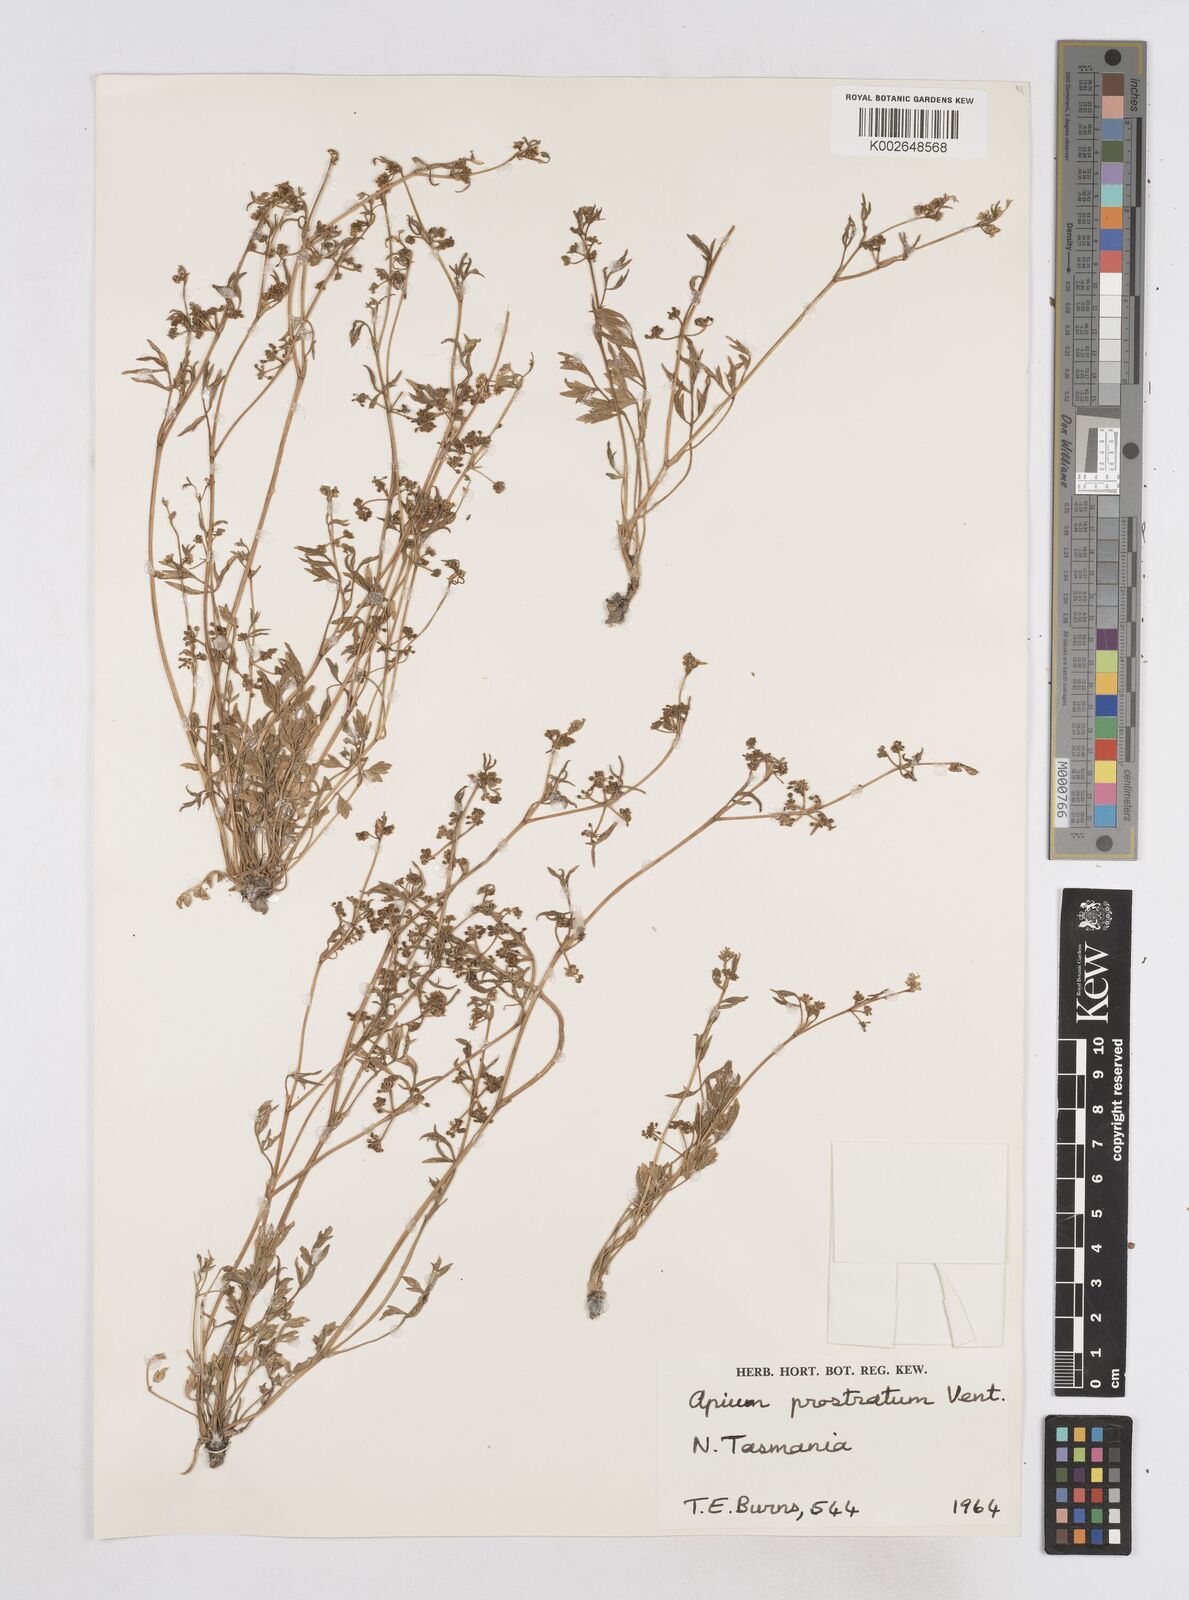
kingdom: Plantae
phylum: Tracheophyta
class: Magnoliopsida
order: Apiales
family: Apiaceae
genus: Apium
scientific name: Apium prostratum
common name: Prostrate marshwort
